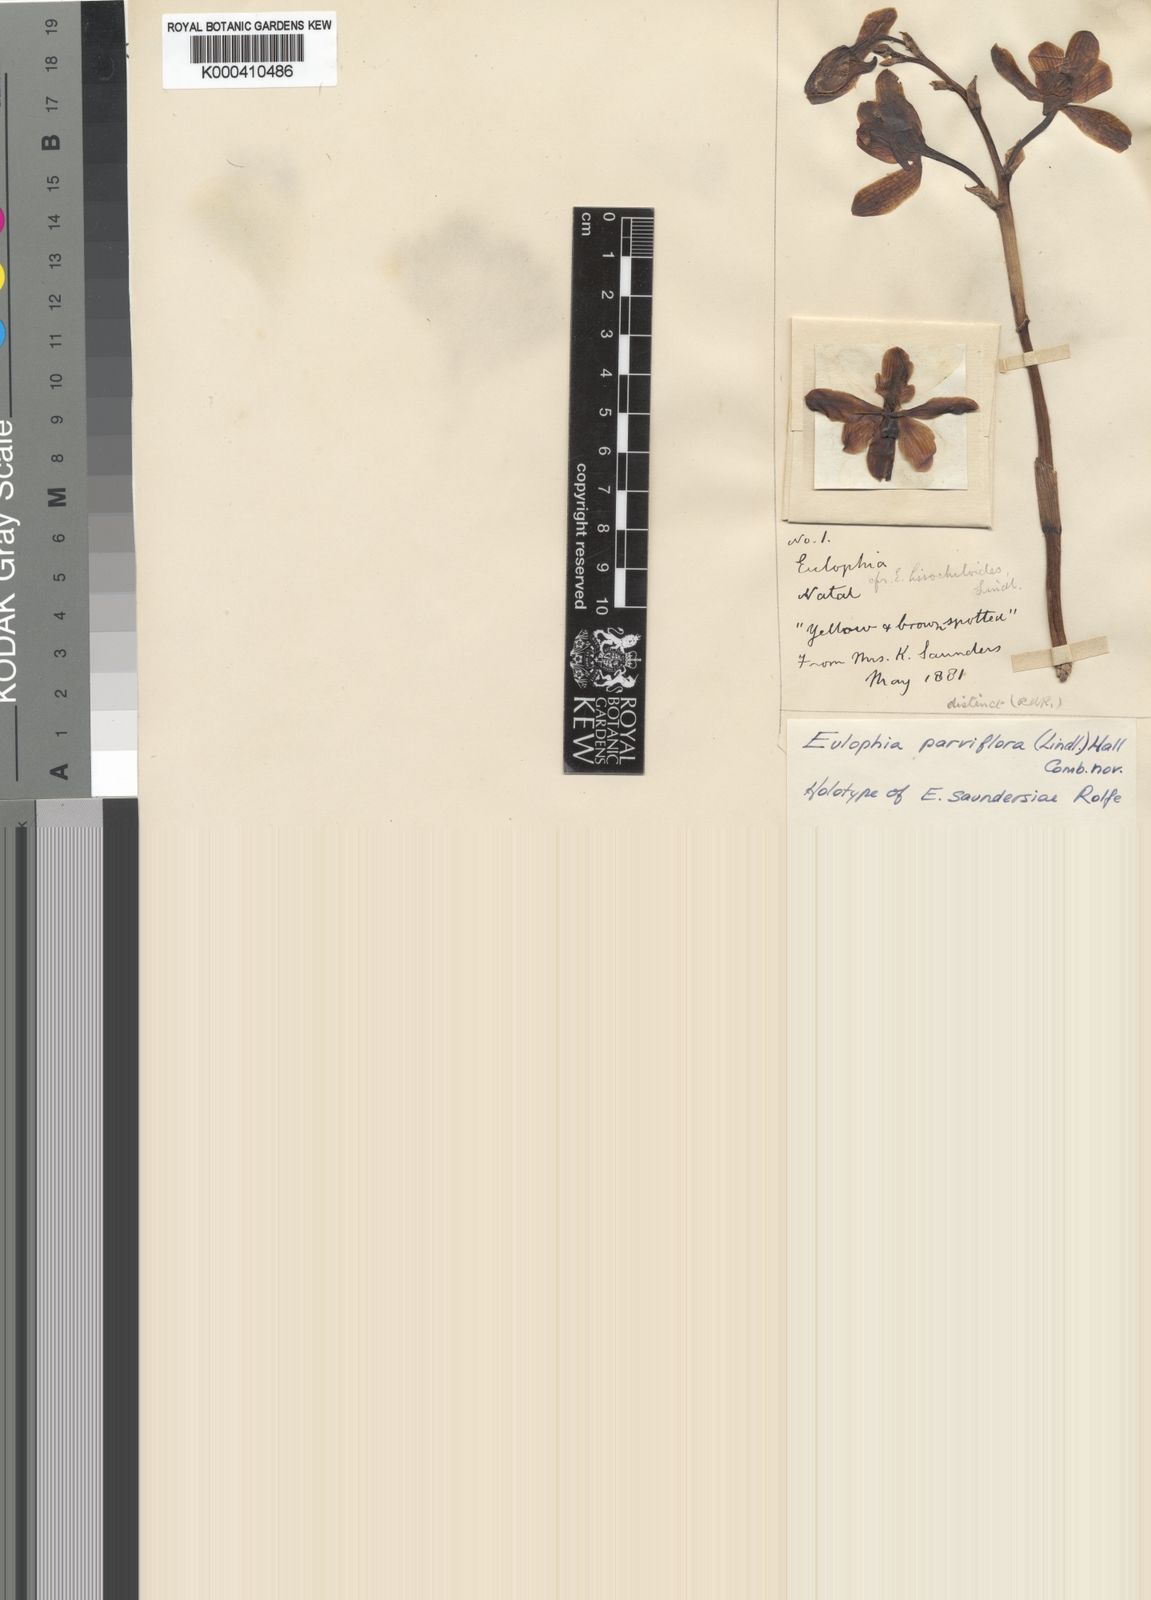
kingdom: Plantae
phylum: Tracheophyta
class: Liliopsida
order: Asparagales
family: Orchidaceae
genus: Eulophia
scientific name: Eulophia parviflora
